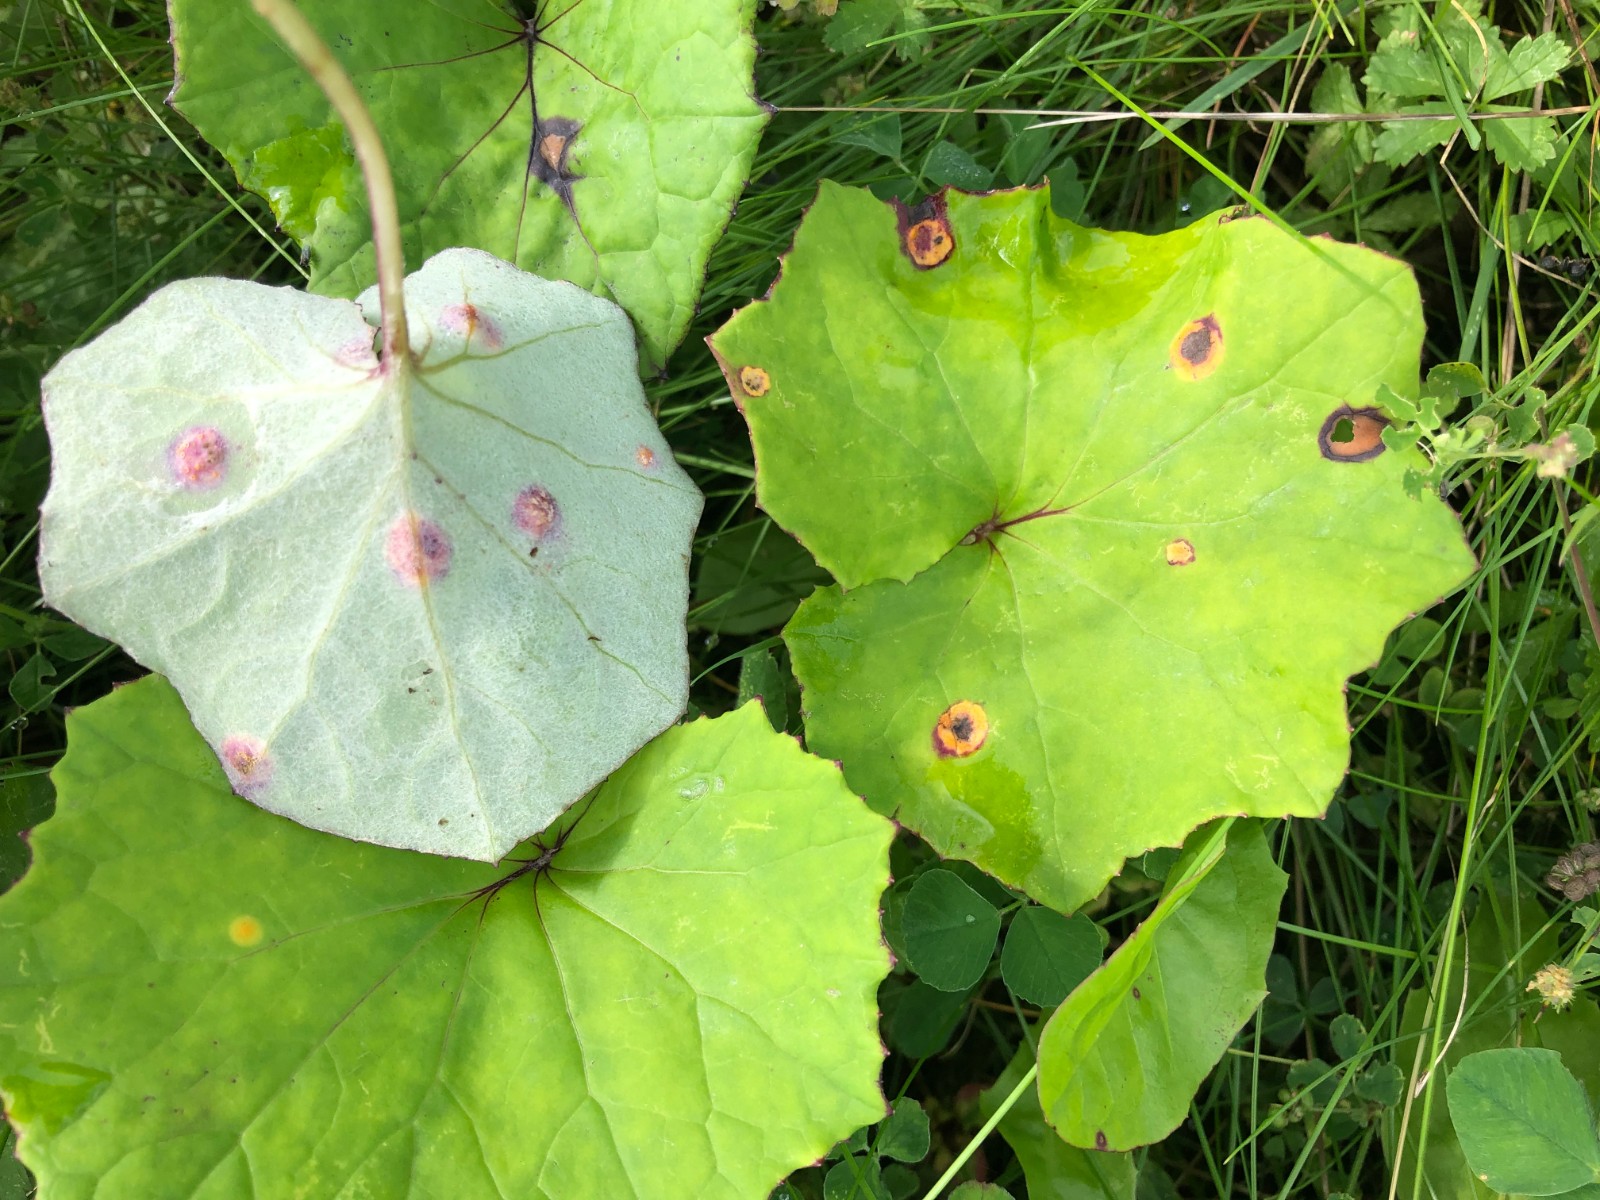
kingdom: Fungi
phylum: Basidiomycota
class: Pucciniomycetes
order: Pucciniales
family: Pucciniaceae
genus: Puccinia
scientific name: Puccinia poarum
